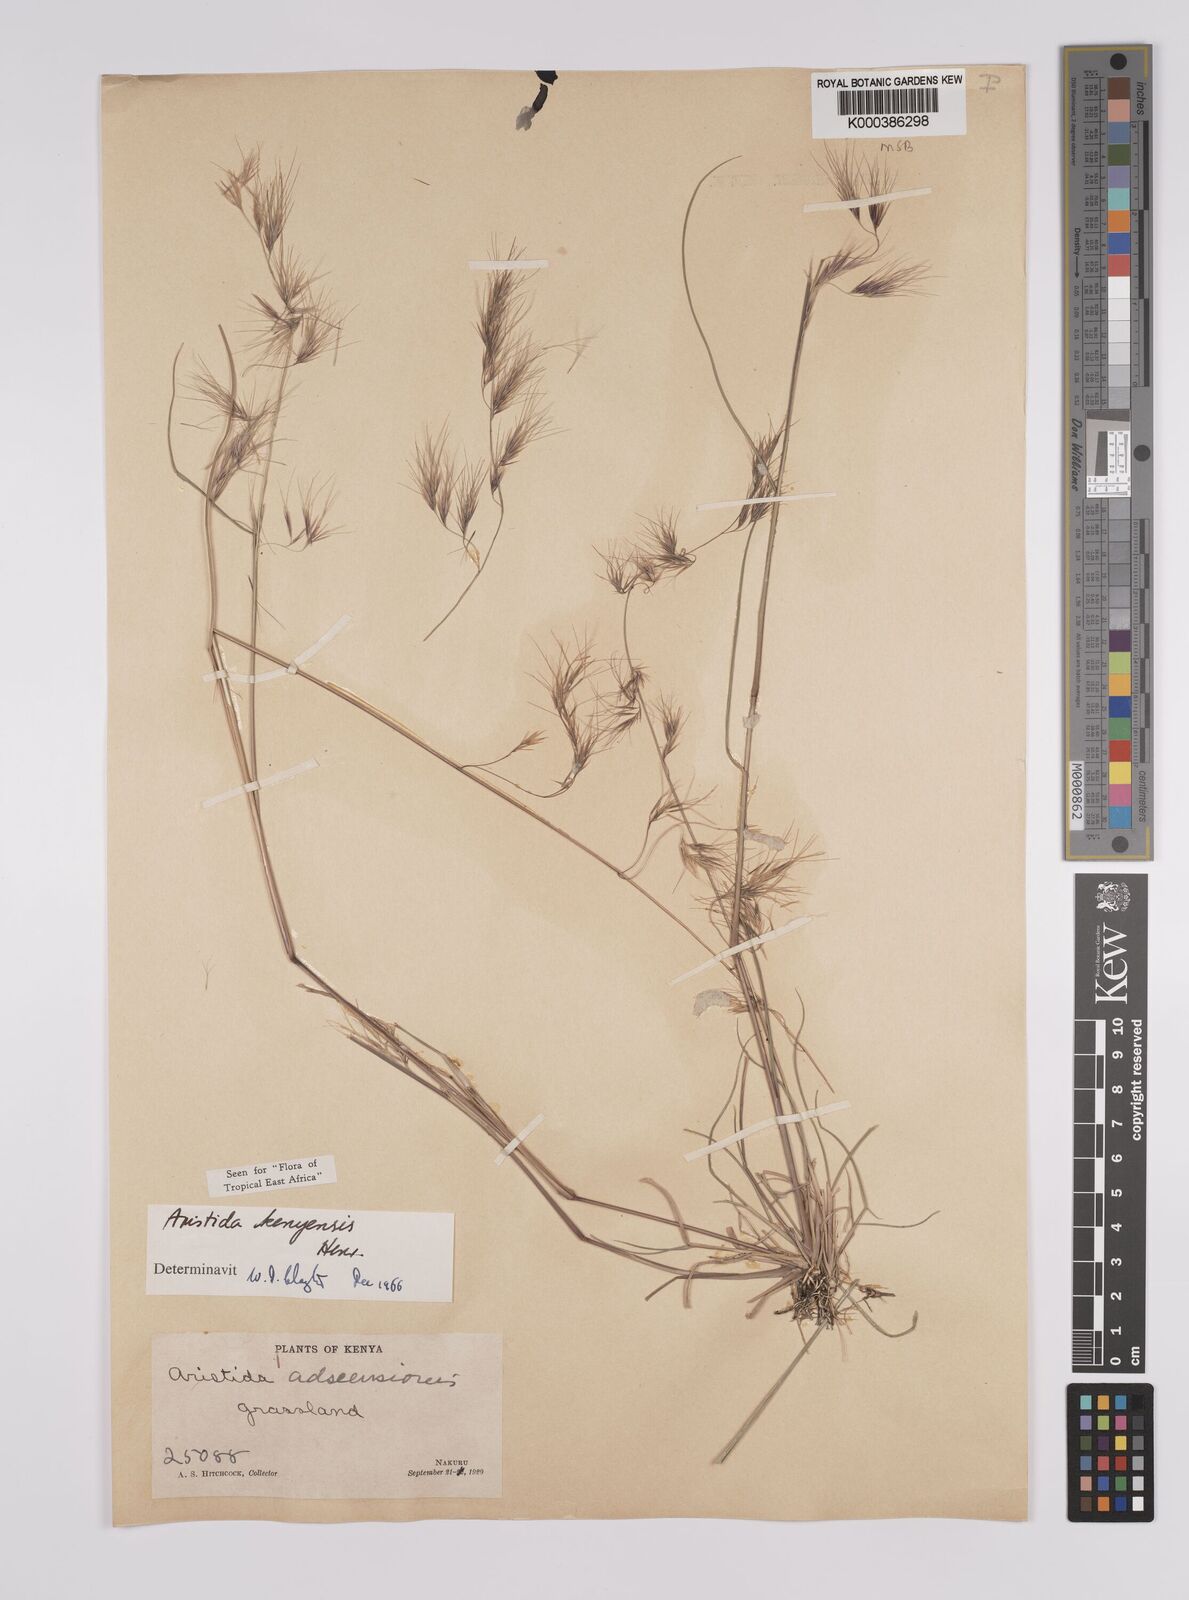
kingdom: Plantae
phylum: Tracheophyta
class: Liliopsida
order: Poales
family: Poaceae
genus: Aristida
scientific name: Aristida kenyensis
